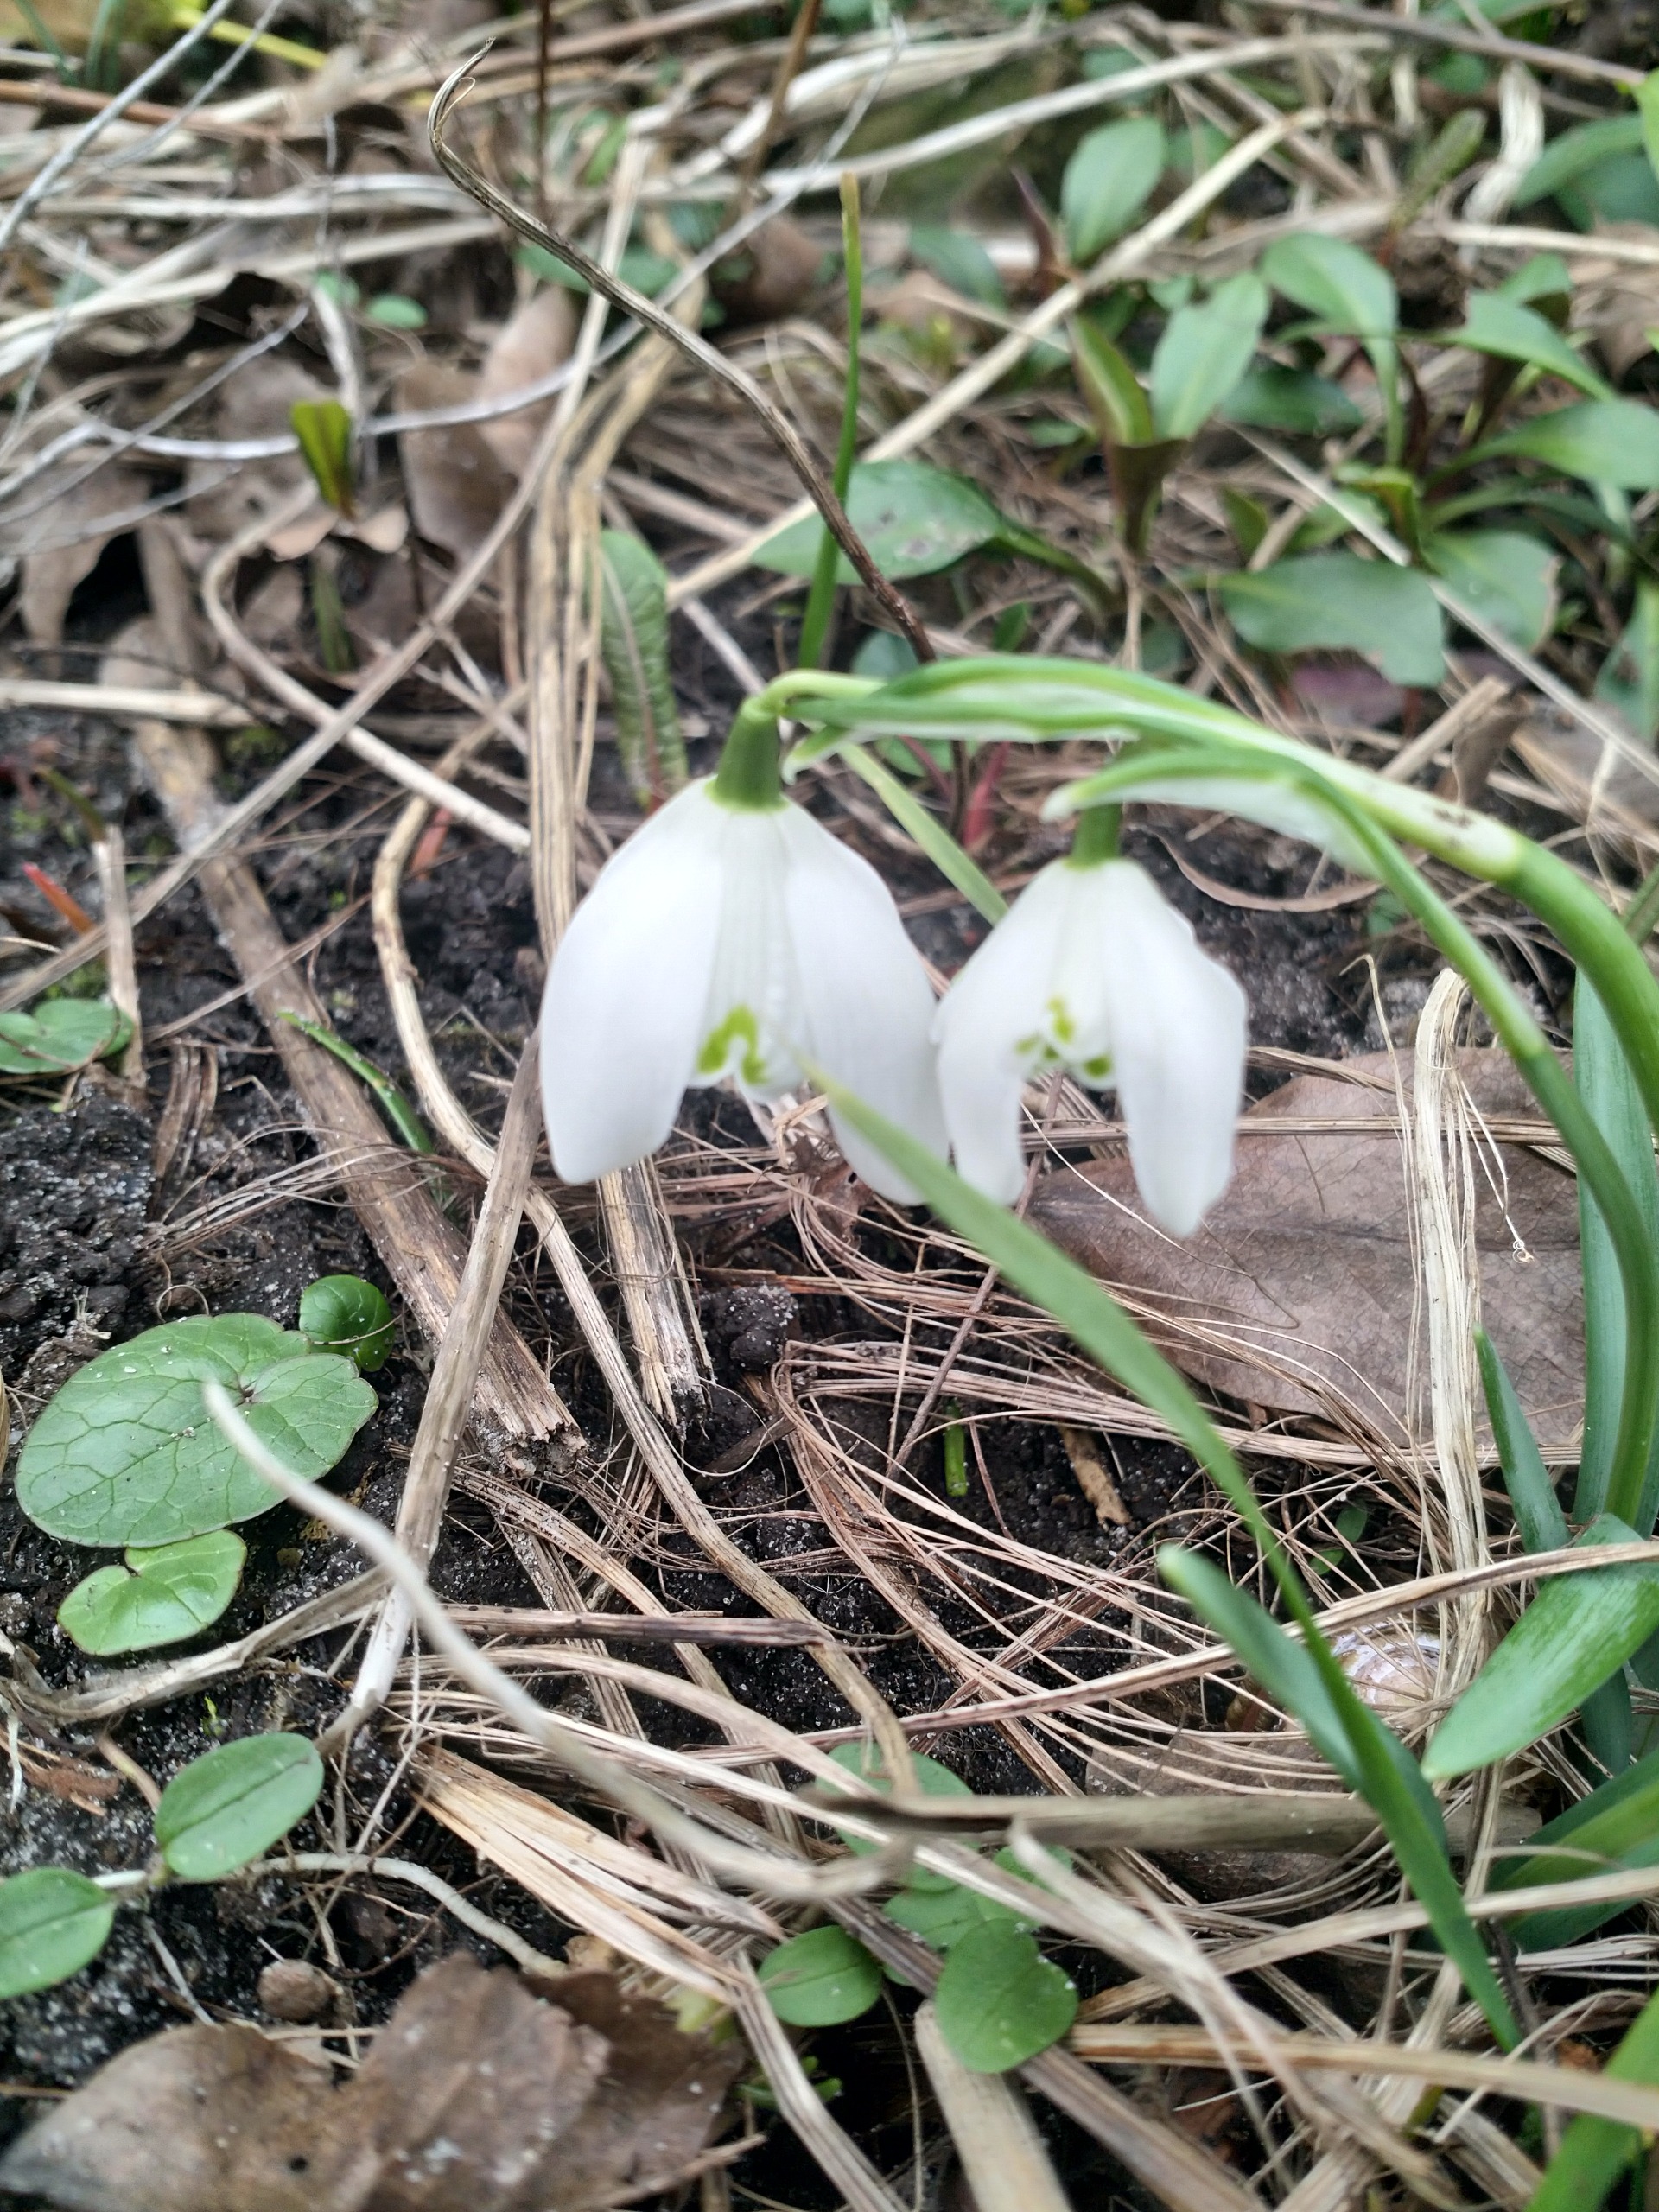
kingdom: Plantae
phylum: Tracheophyta
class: Liliopsida
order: Asparagales
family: Amaryllidaceae
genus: Galanthus
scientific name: Galanthus nivalis
